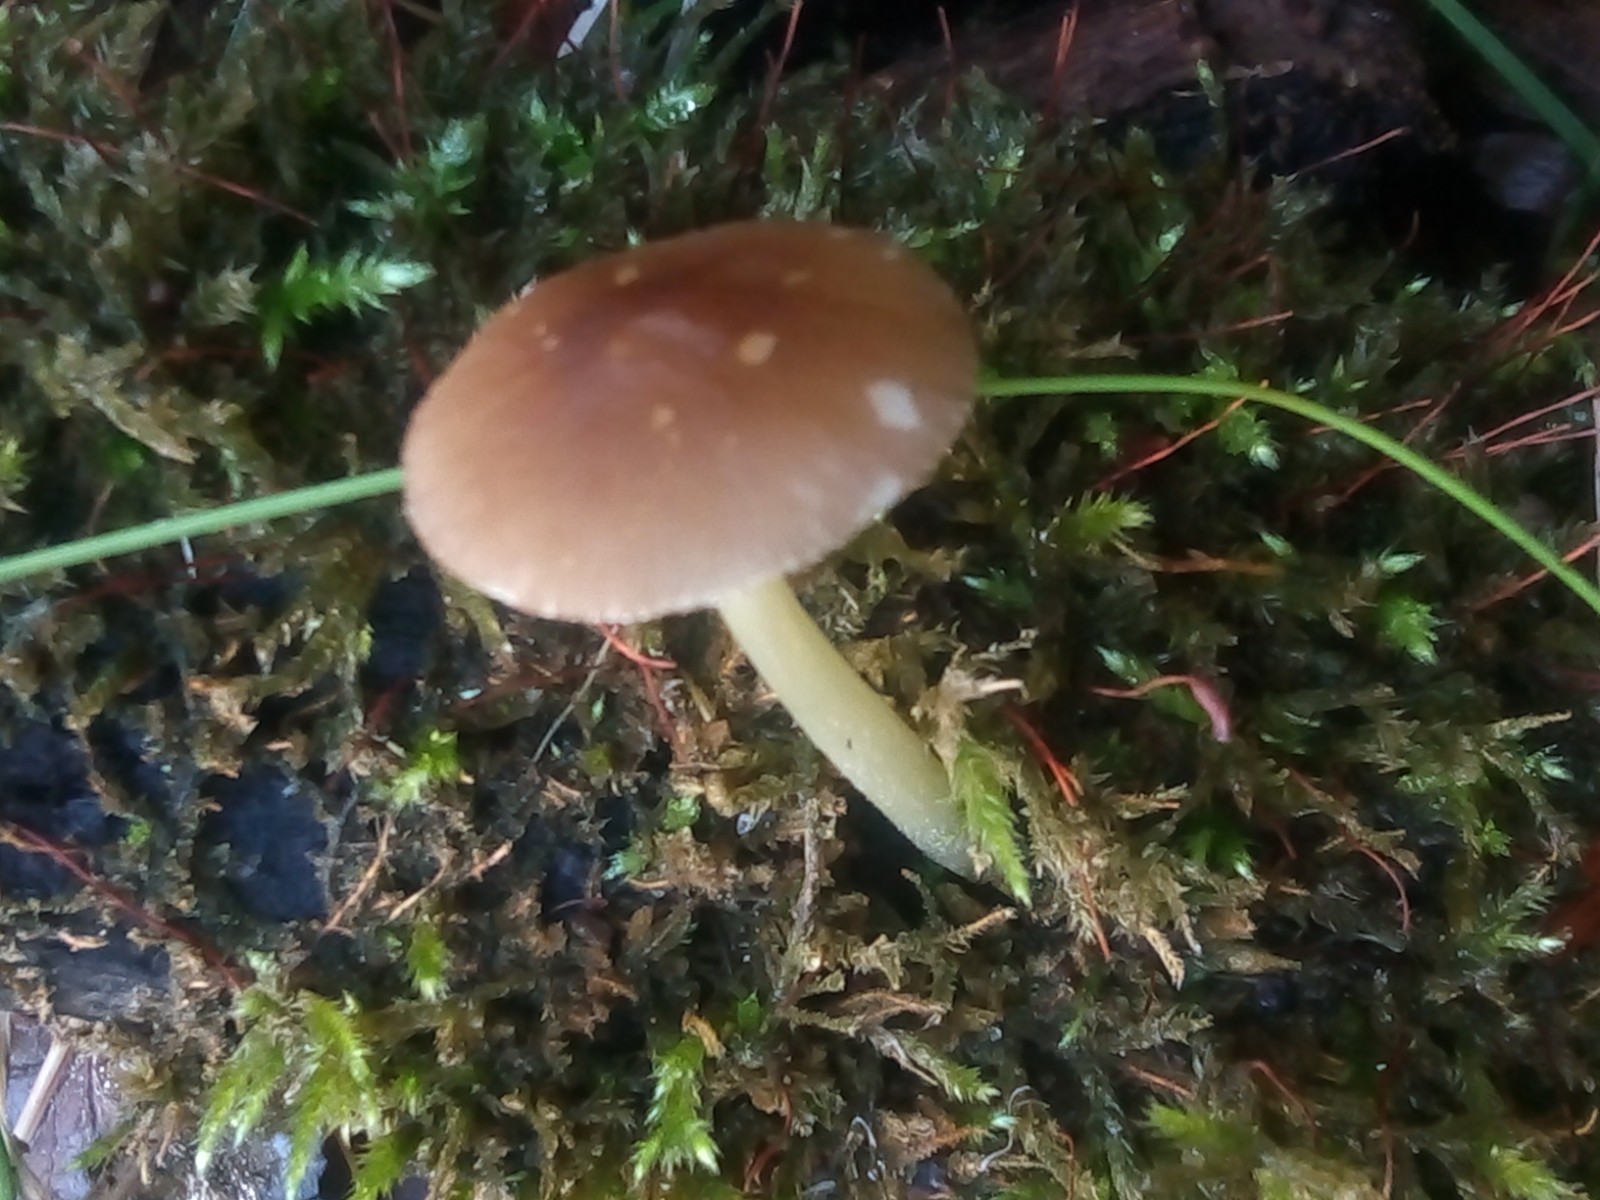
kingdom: Fungi
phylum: Basidiomycota
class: Agaricomycetes
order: Agaricales
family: Pluteaceae
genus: Pluteus
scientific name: Pluteus romellii
